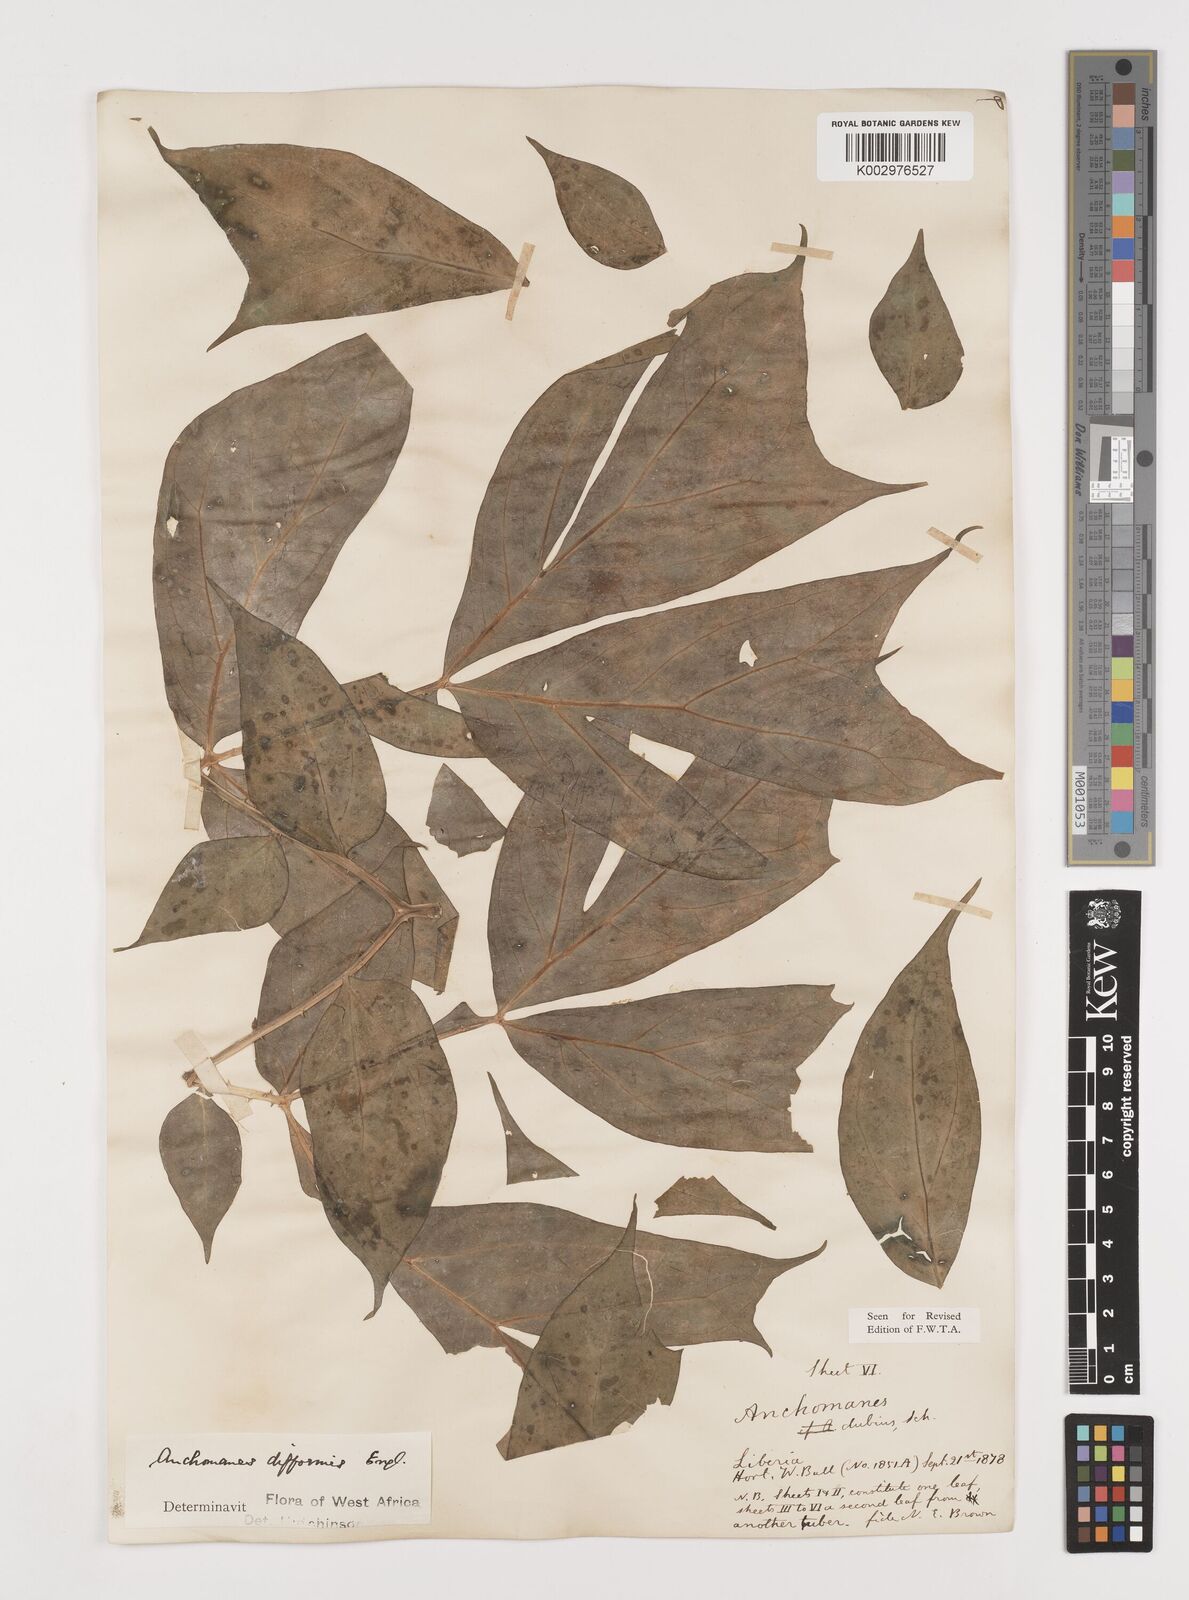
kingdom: Plantae
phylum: Tracheophyta
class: Liliopsida
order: Alismatales
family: Araceae
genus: Anchomanes
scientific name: Anchomanes difformis
